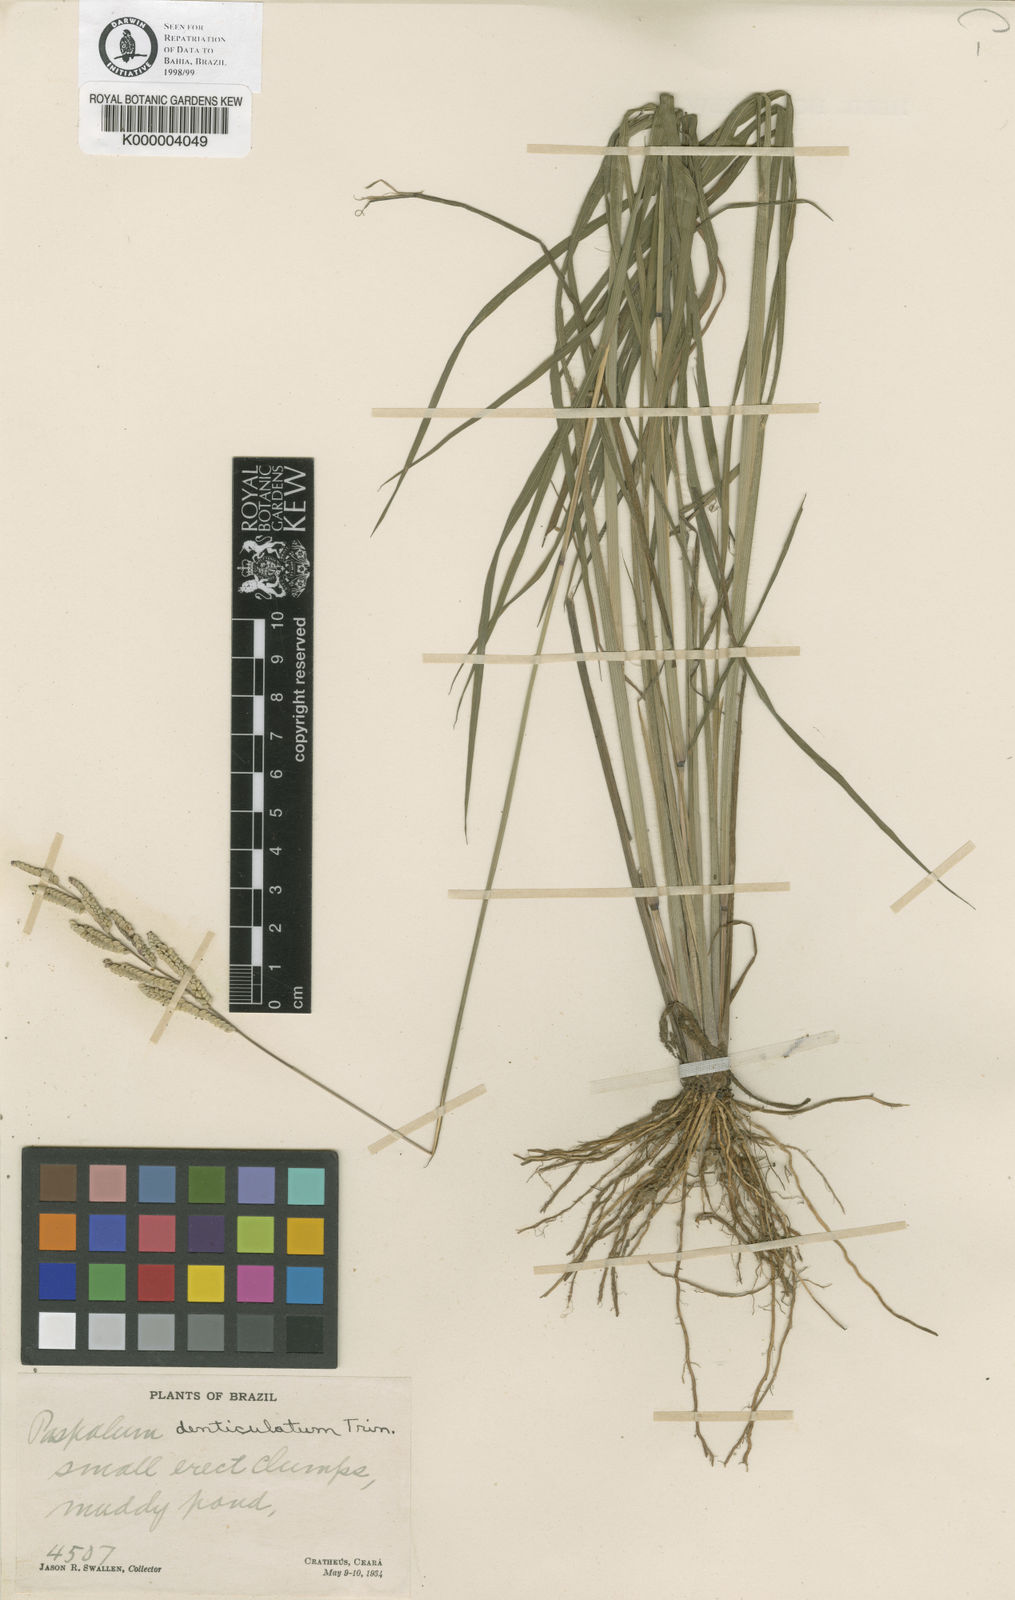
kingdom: Plantae
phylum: Tracheophyta
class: Liliopsida
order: Poales
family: Poaceae
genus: Paspalum
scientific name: Paspalum trinii
